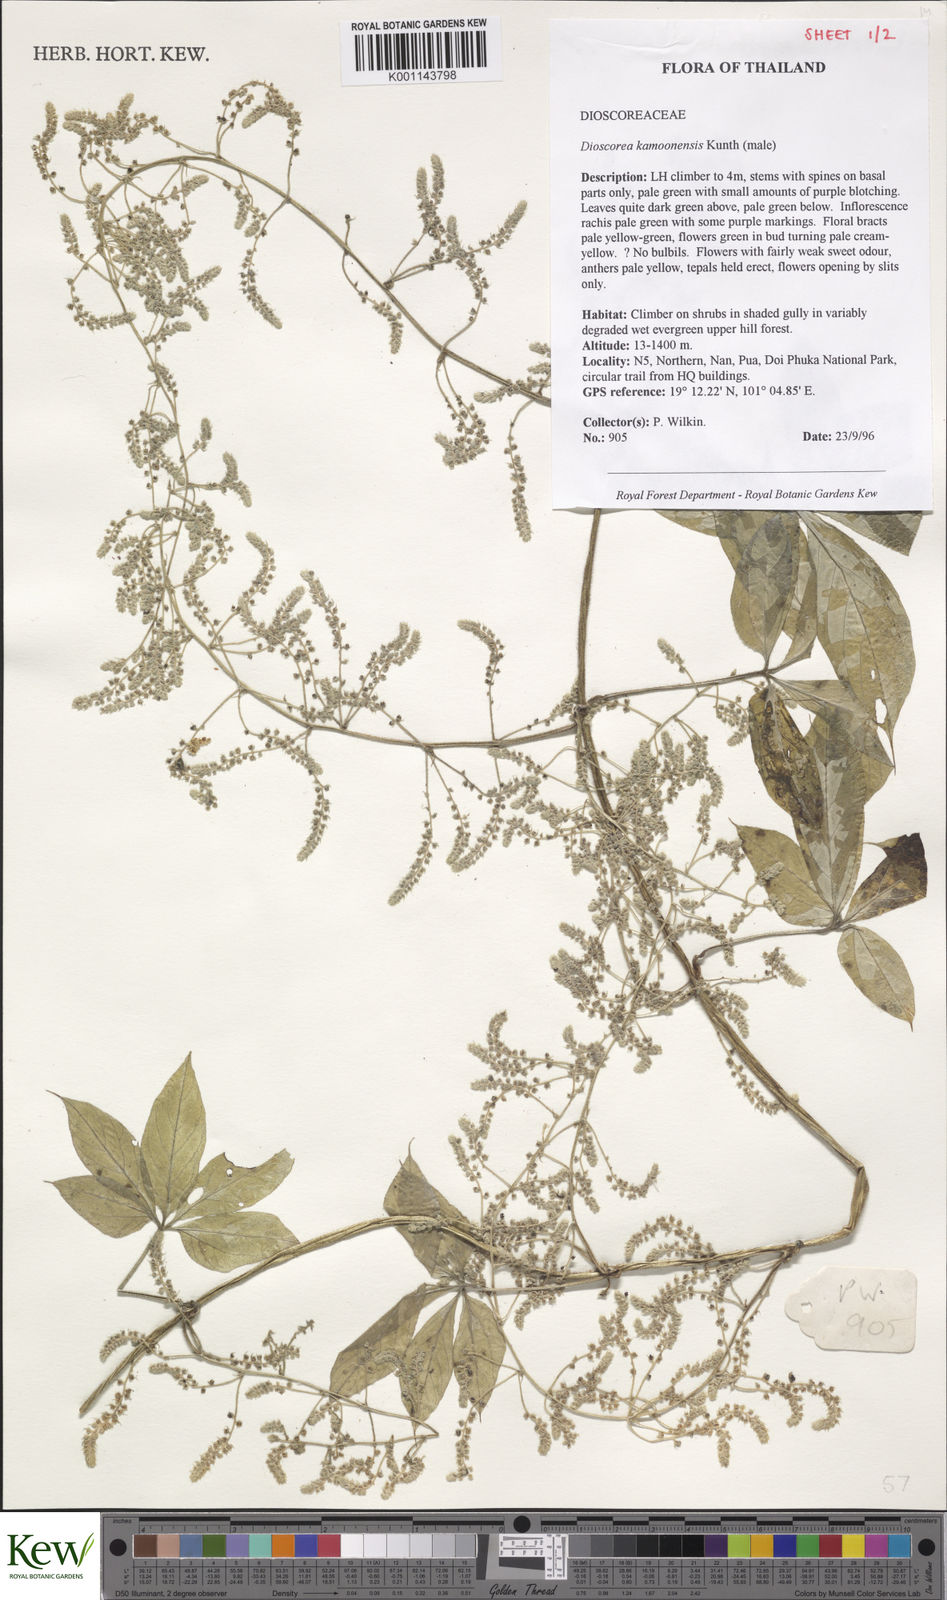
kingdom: Plantae
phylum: Tracheophyta
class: Liliopsida
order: Dioscoreales
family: Dioscoreaceae
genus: Dioscorea
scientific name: Dioscorea kamoonensis
